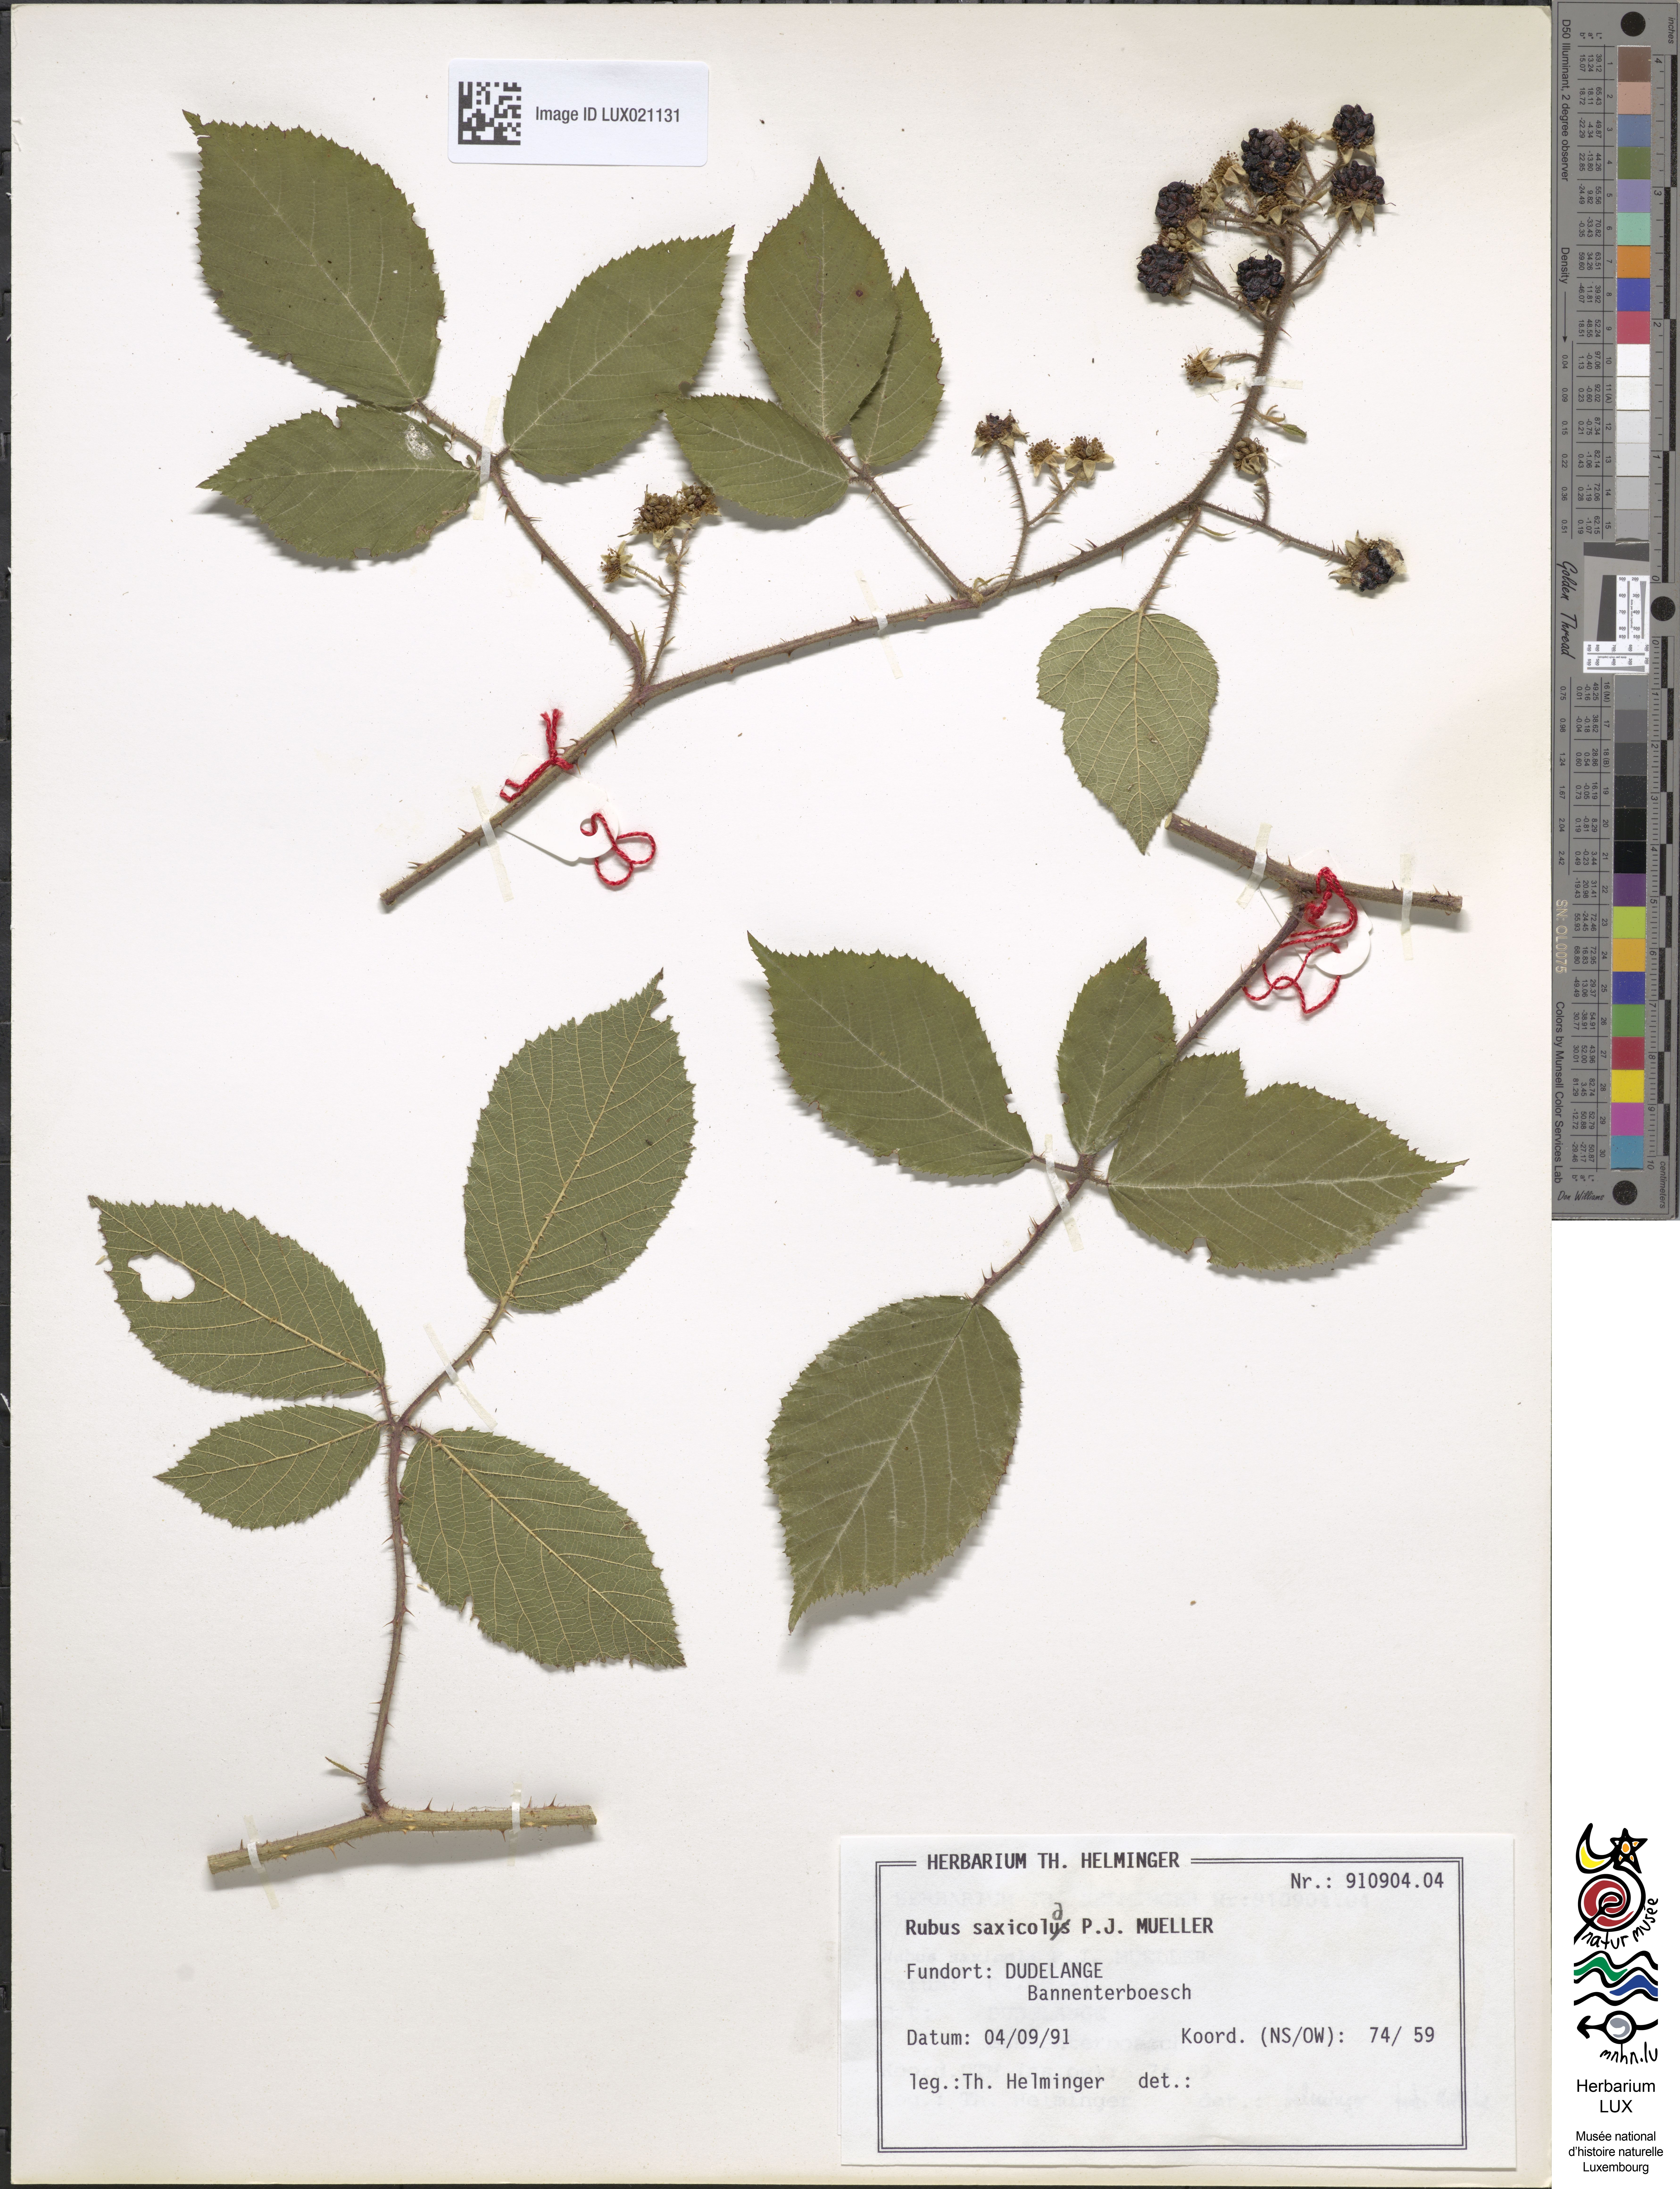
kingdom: Plantae
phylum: Tracheophyta
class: Magnoliopsida
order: Rosales
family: Rosaceae
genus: Rubus
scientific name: Rubus saxicola
